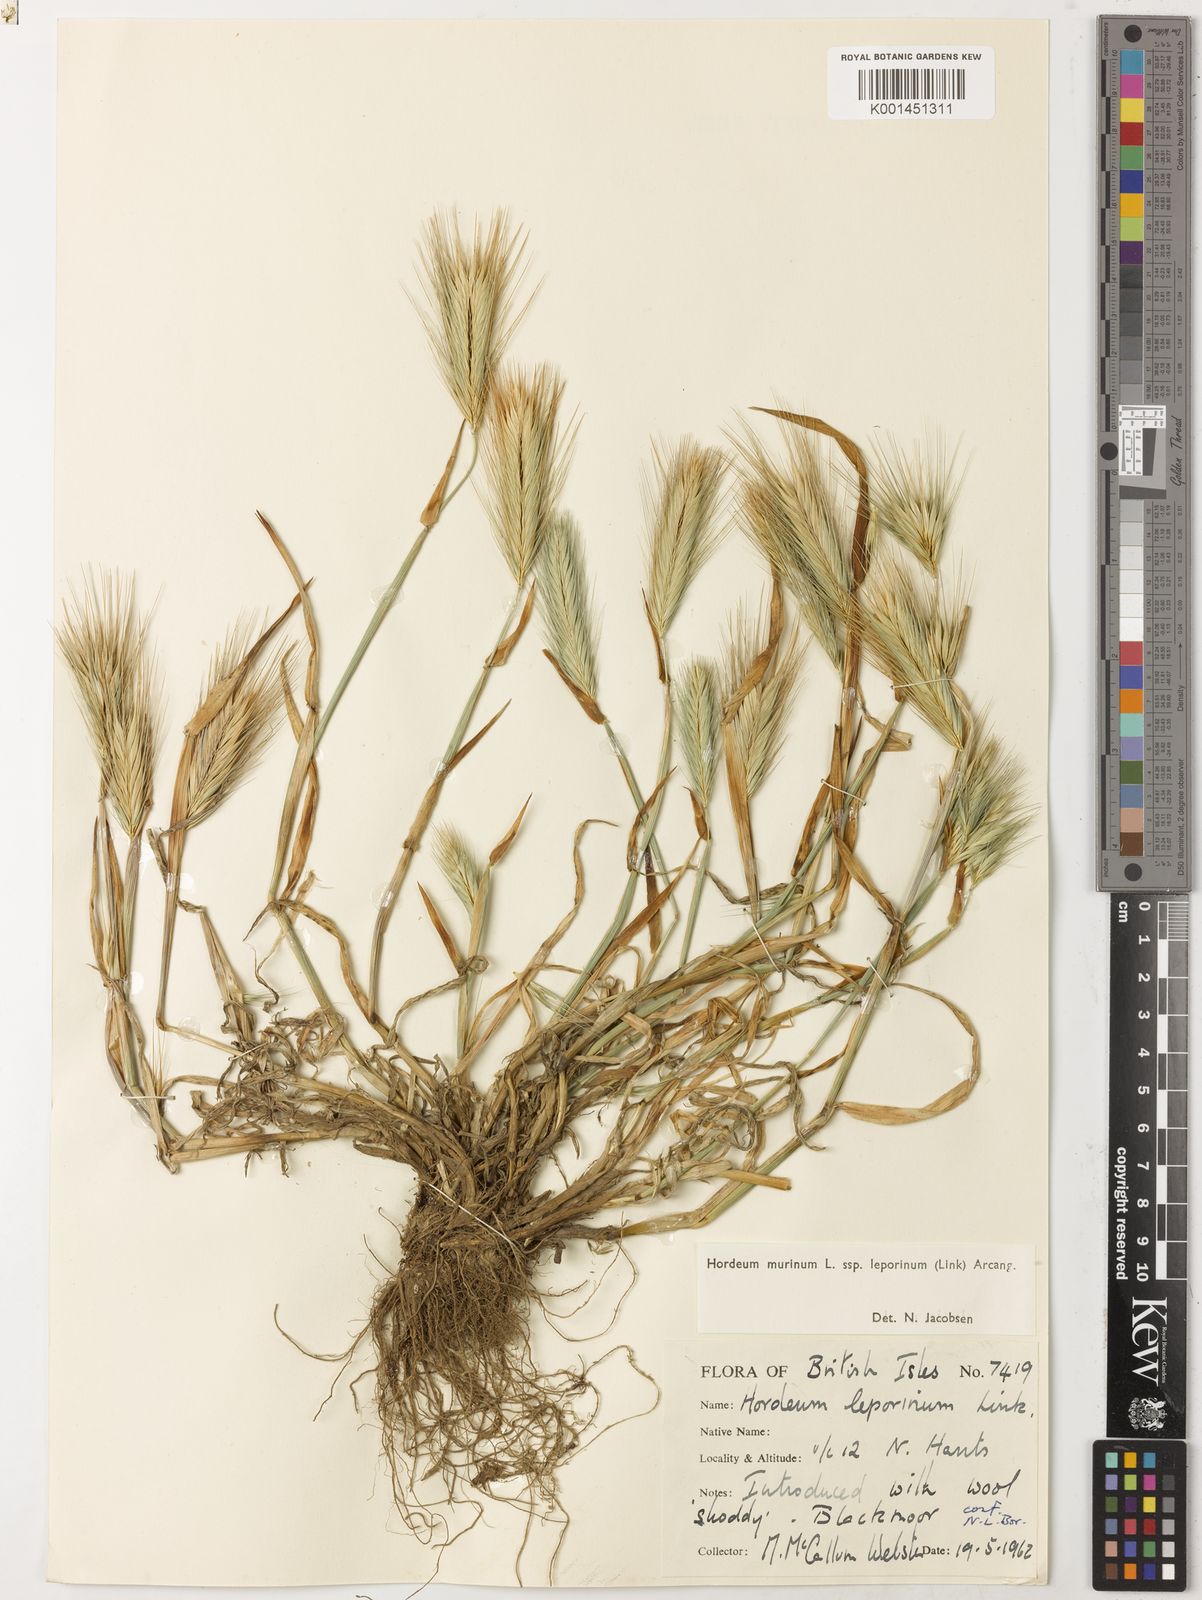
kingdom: Plantae
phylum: Tracheophyta
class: Liliopsida
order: Poales
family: Poaceae
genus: Hordeum
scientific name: Hordeum murinum
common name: Wall barley
